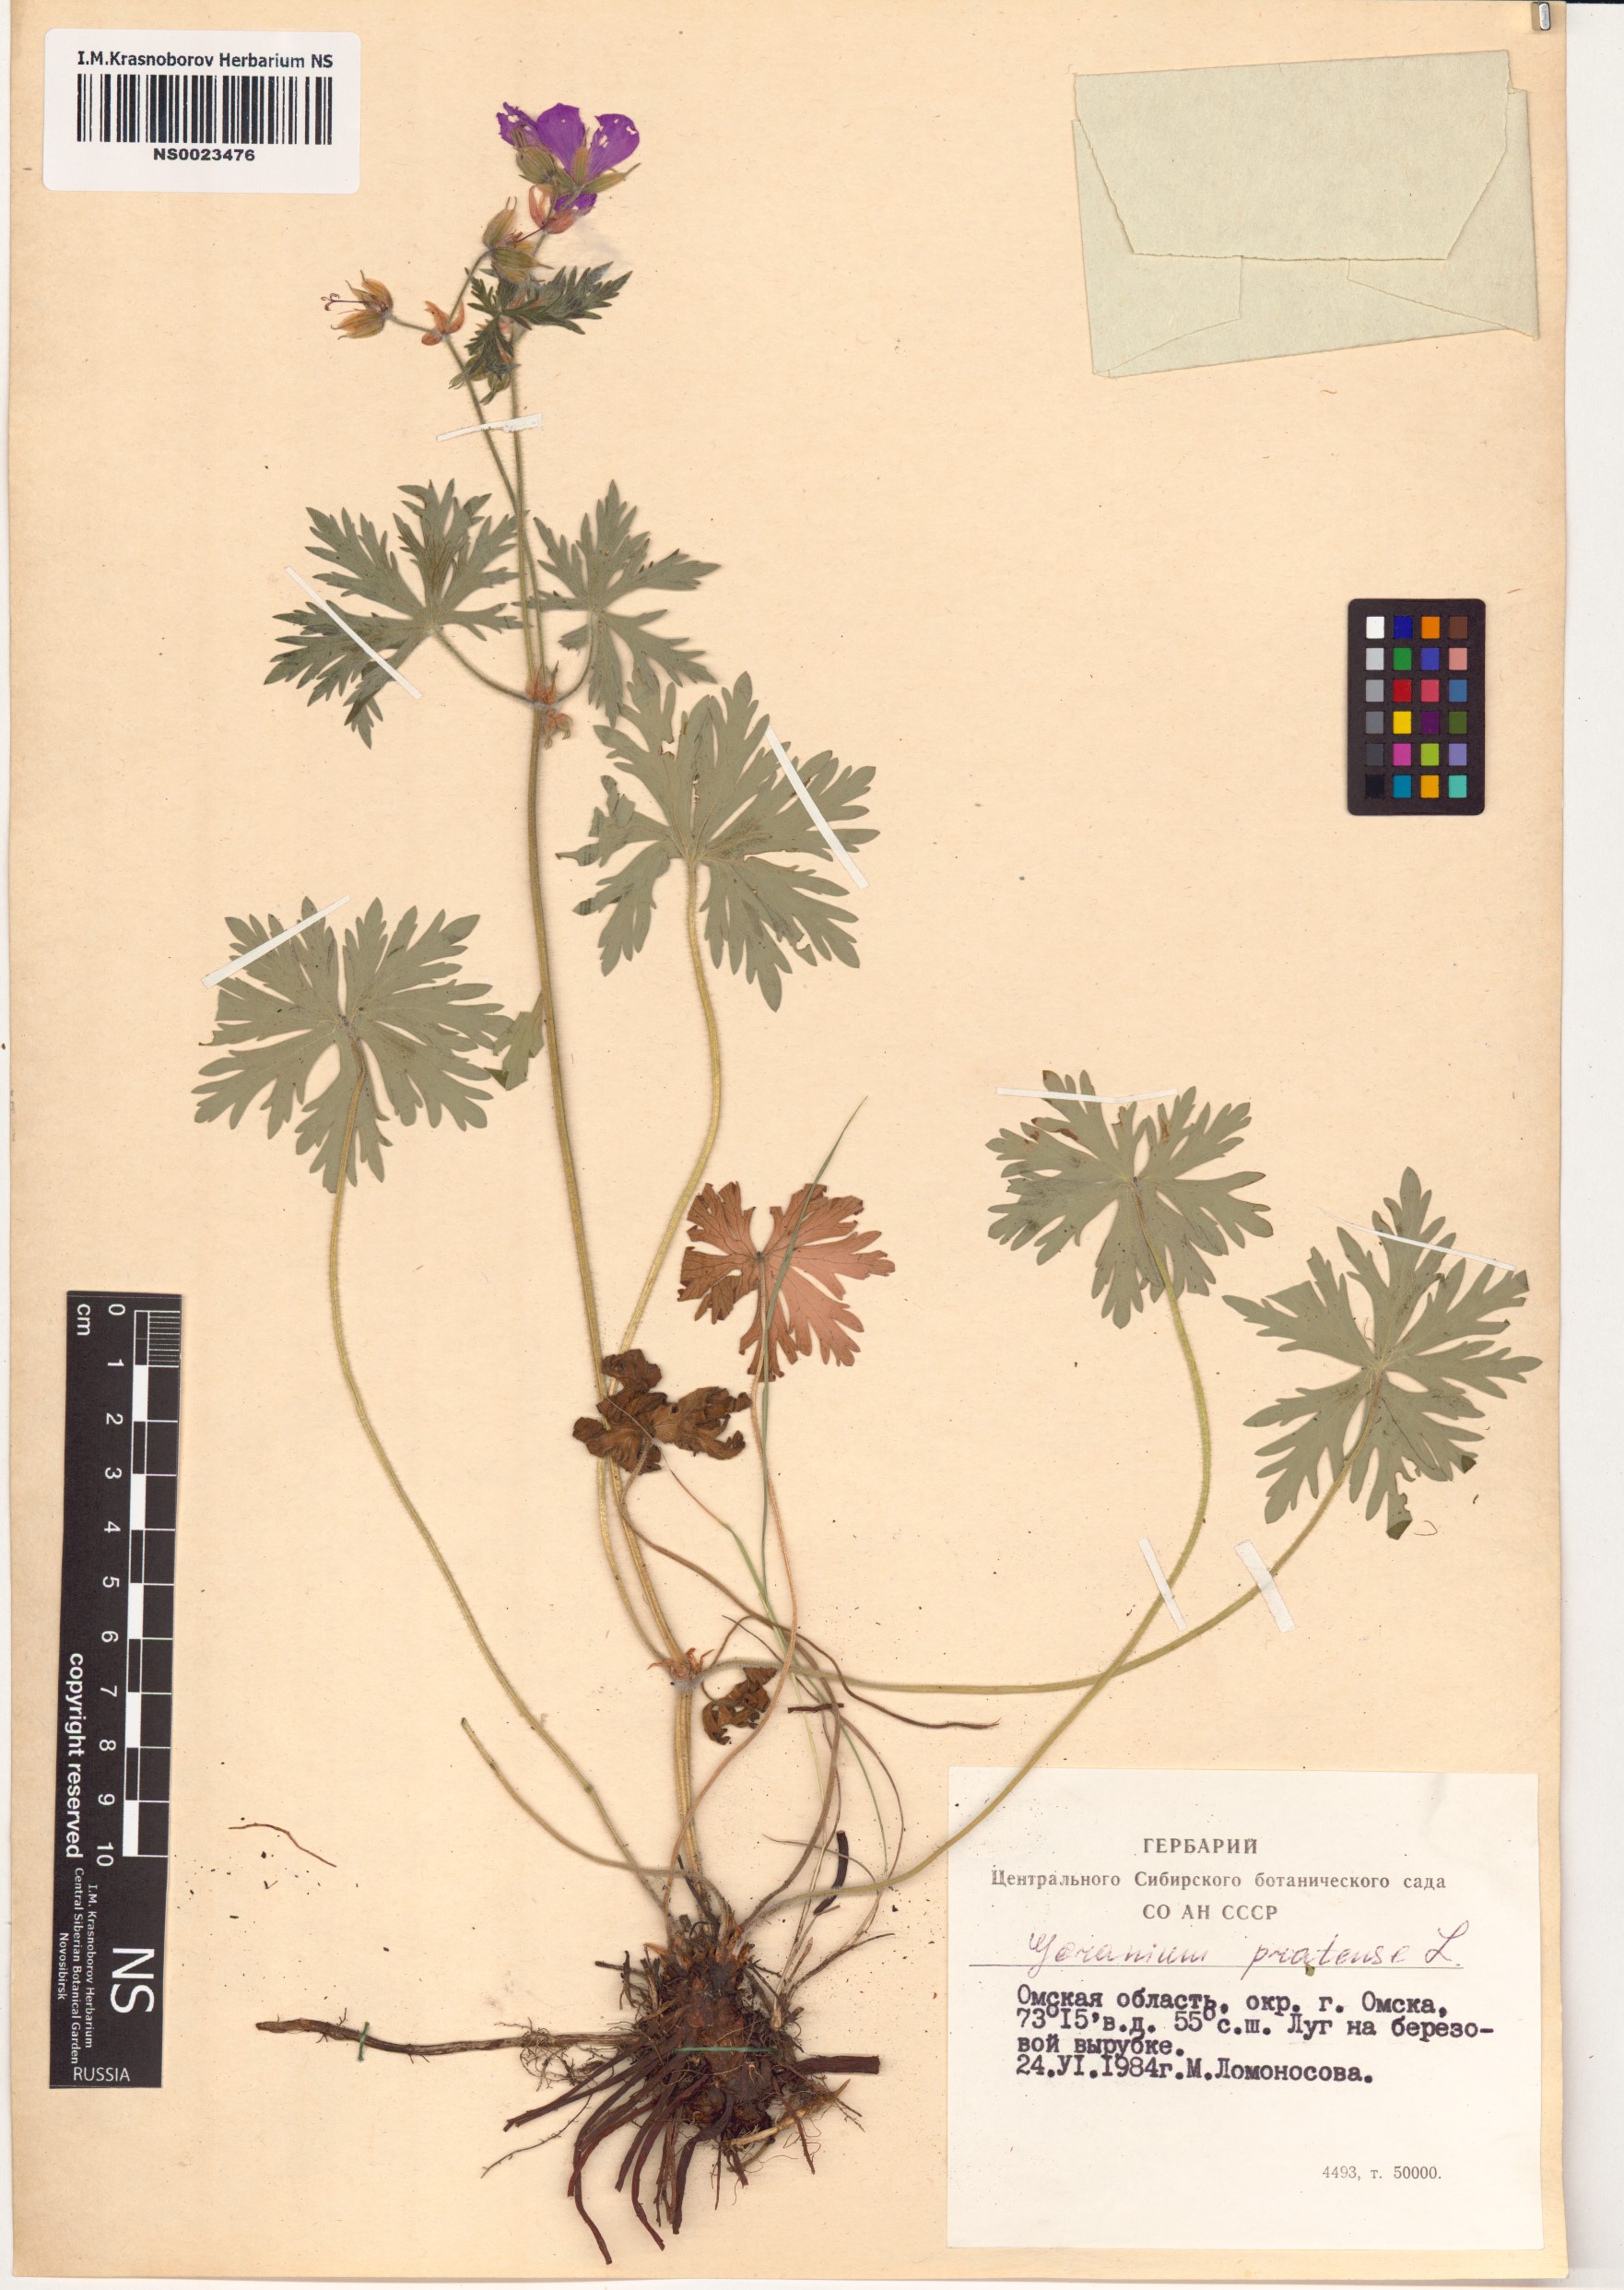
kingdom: Plantae
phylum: Tracheophyta
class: Magnoliopsida
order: Geraniales
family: Geraniaceae
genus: Geranium
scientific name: Geranium pratense
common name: Meadow crane's-bill
